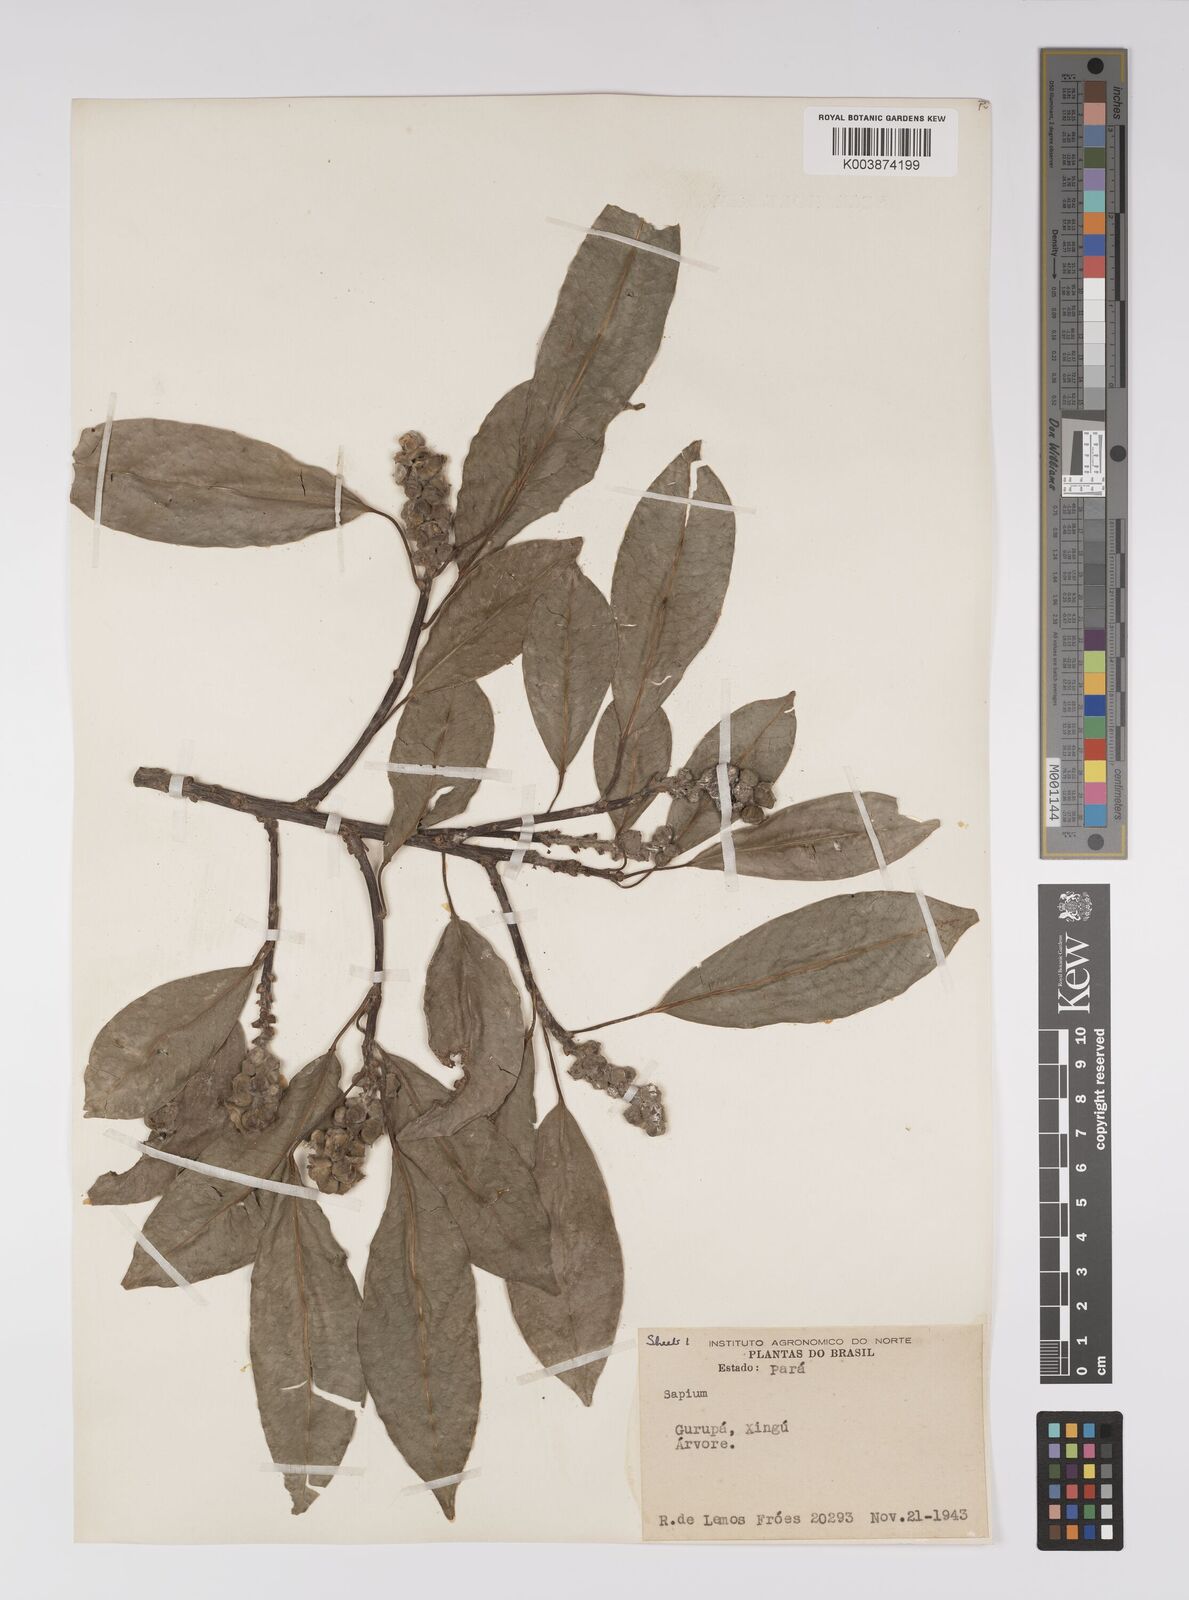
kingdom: Plantae
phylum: Tracheophyta
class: Magnoliopsida
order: Malpighiales
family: Euphorbiaceae
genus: Sapium
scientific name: Sapium
